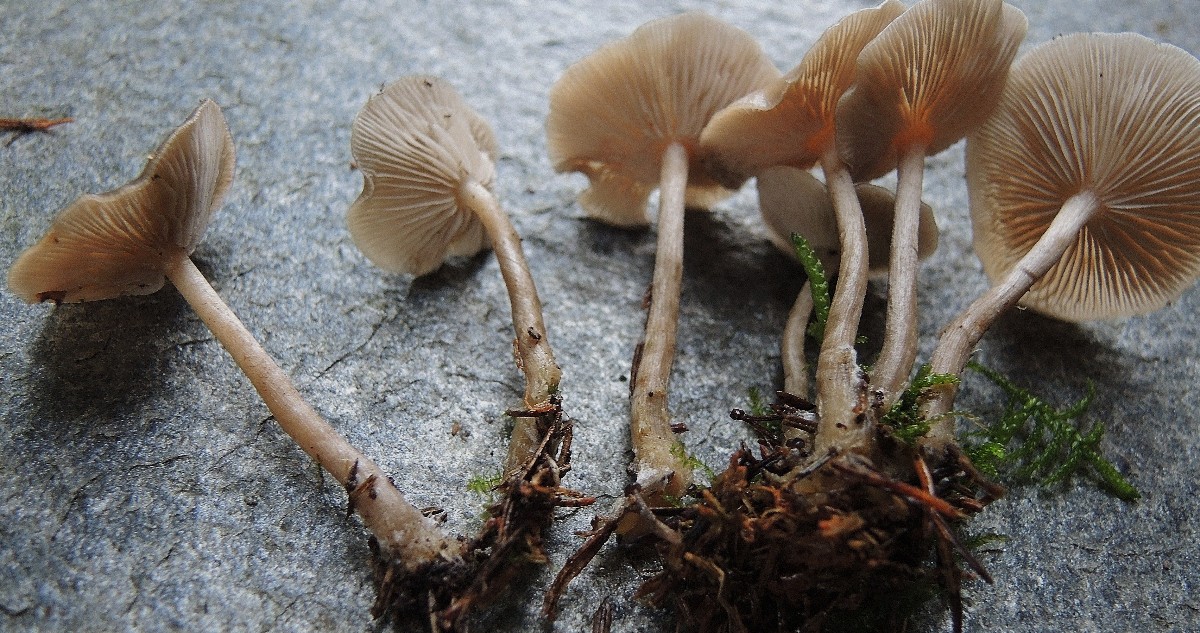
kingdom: Fungi
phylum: Basidiomycota
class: Agaricomycetes
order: Agaricales
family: Tricholomataceae
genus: Clitocybe
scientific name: Clitocybe metachroa
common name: grå tragthat
